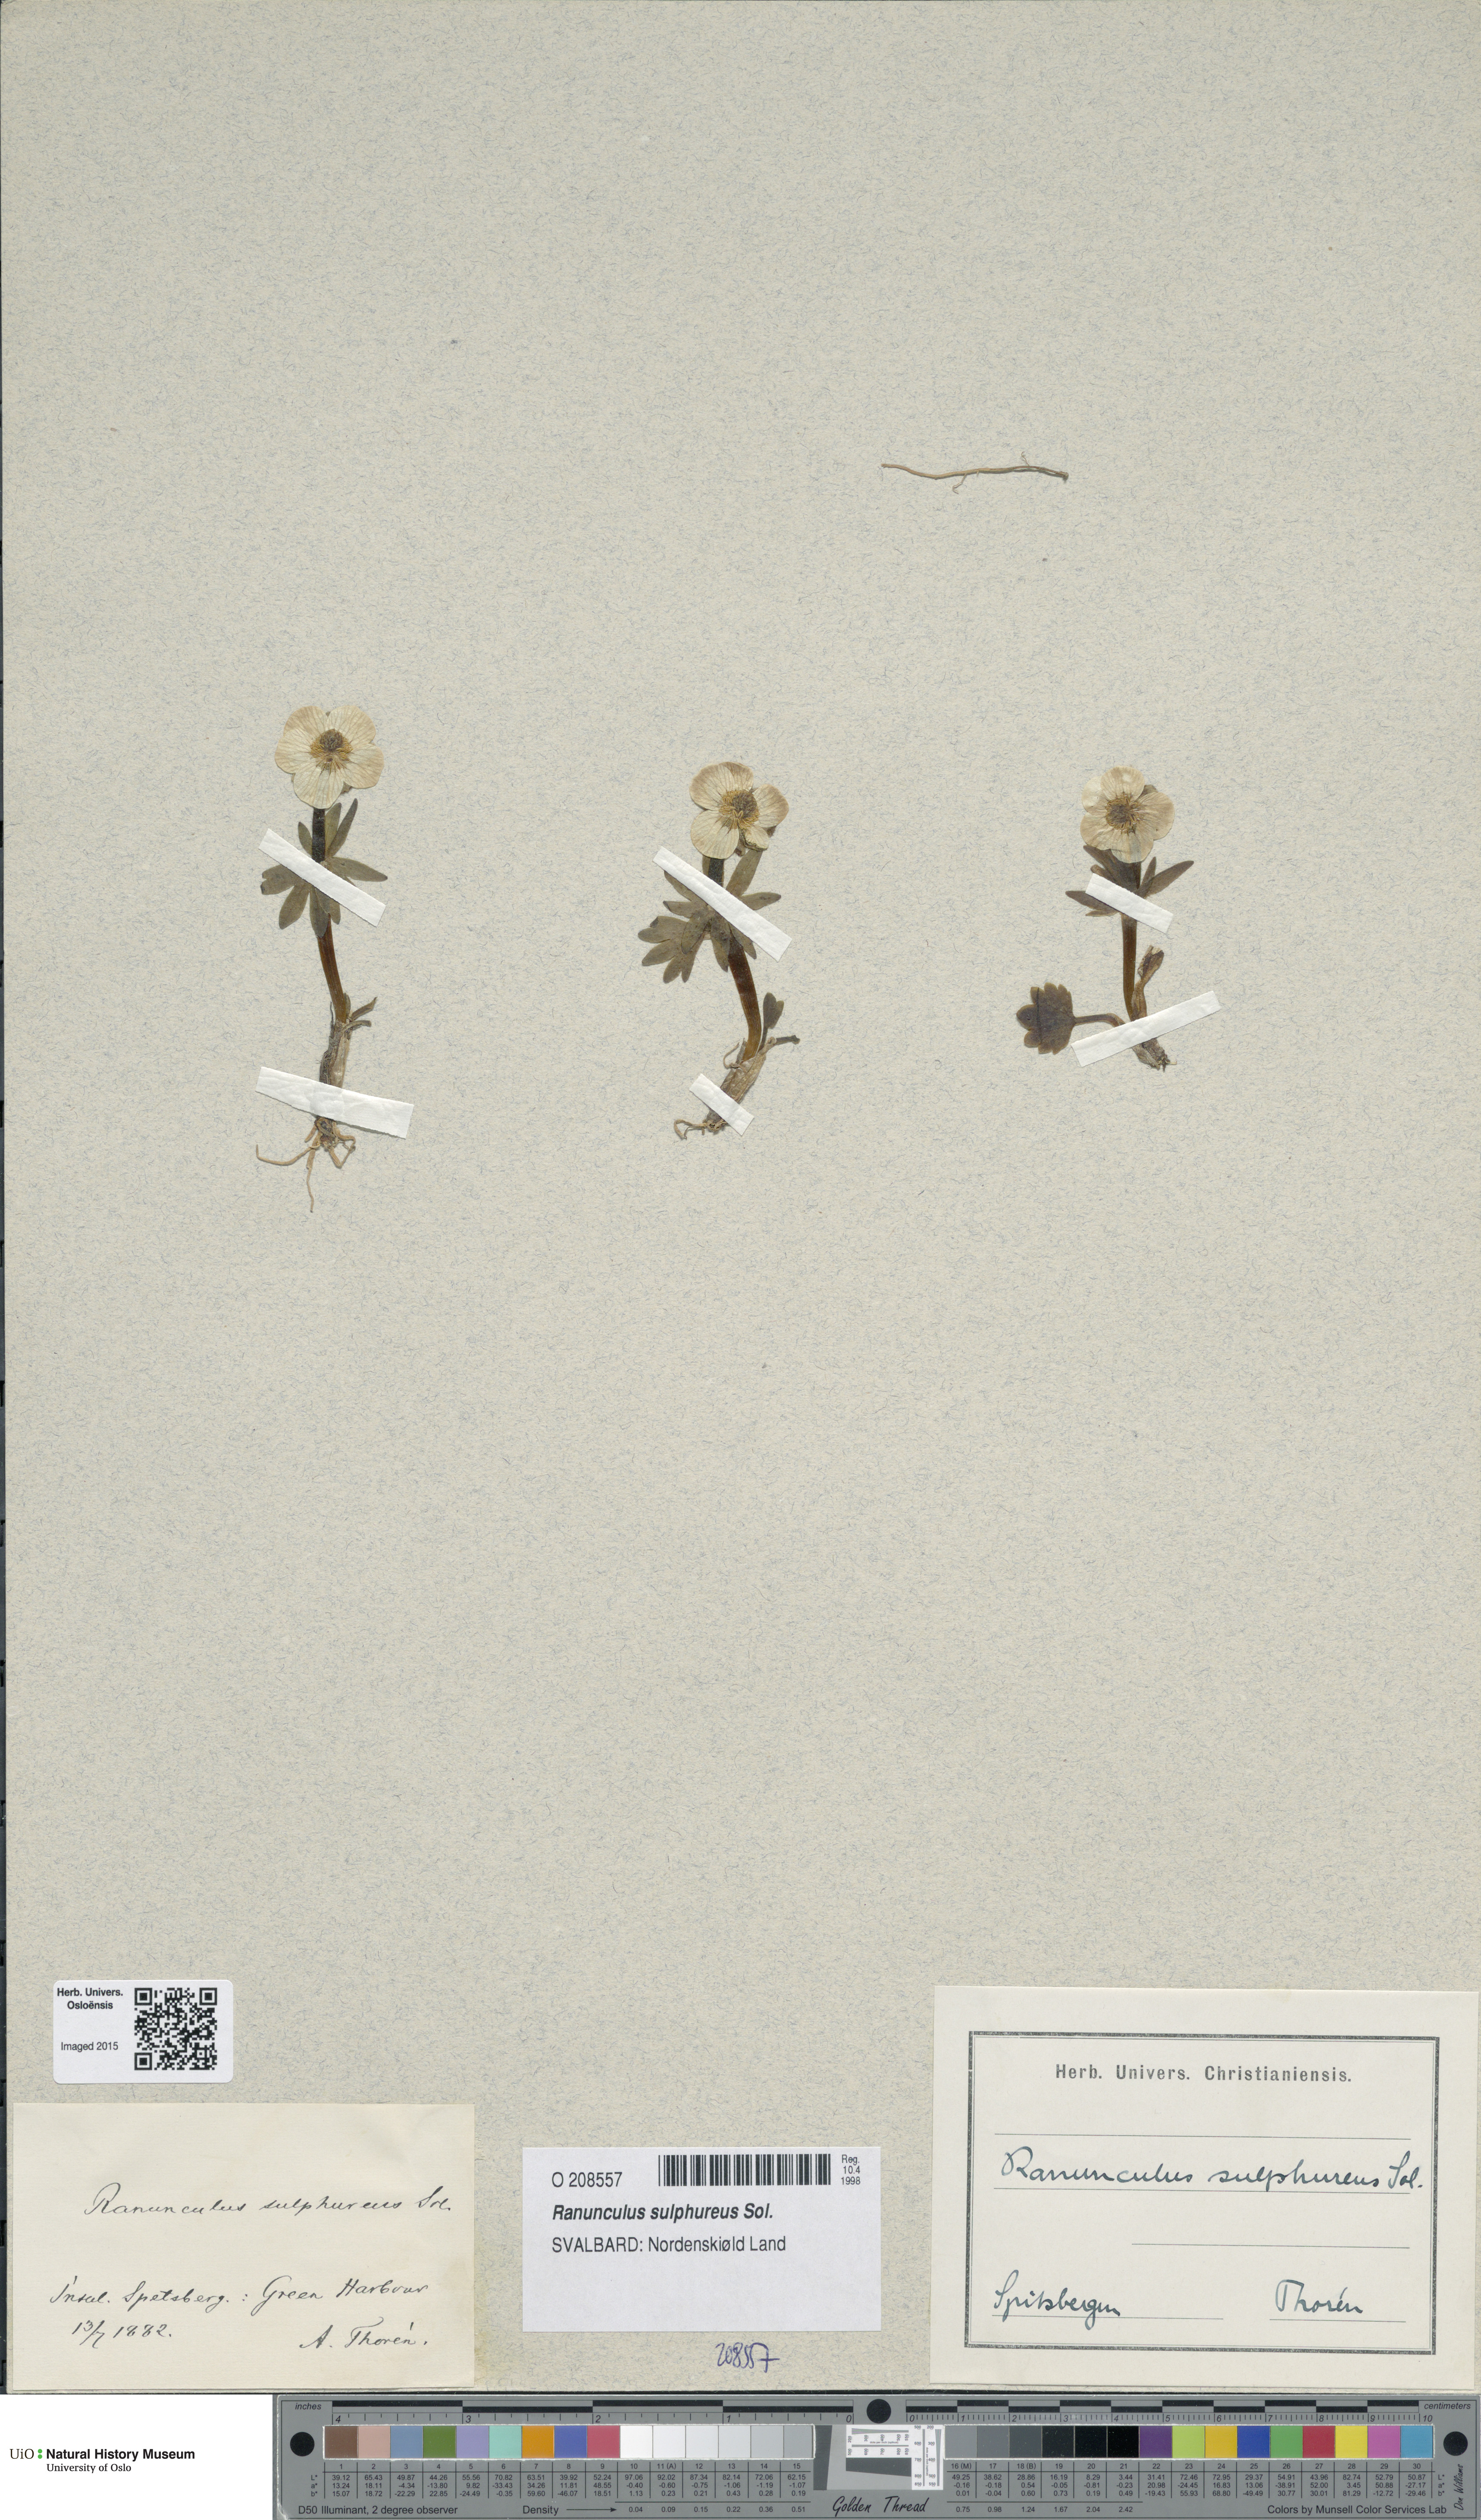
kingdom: Plantae
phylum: Tracheophyta
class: Magnoliopsida
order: Ranunculales
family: Ranunculaceae
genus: Ranunculus
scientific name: Ranunculus sulphureus
